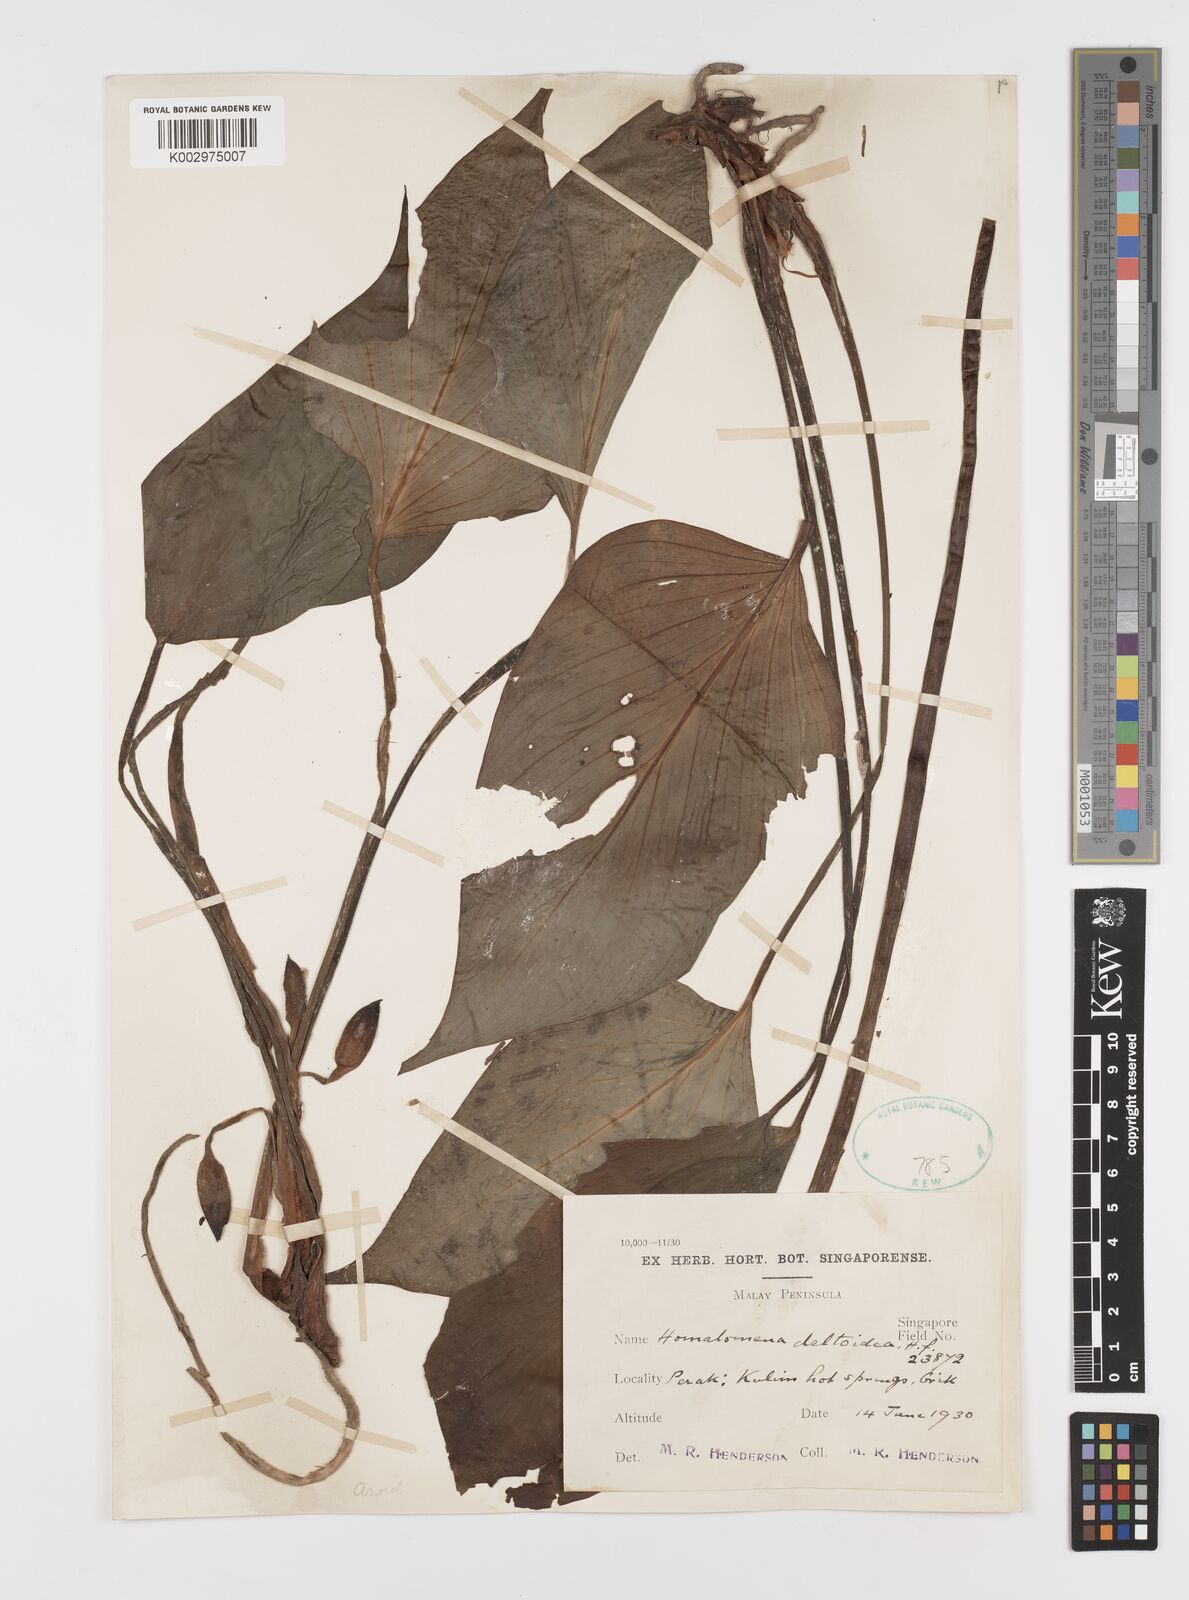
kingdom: Plantae
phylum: Tracheophyta
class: Liliopsida
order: Alismatales
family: Araceae
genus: Homalomena
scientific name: Homalomena griffithii
